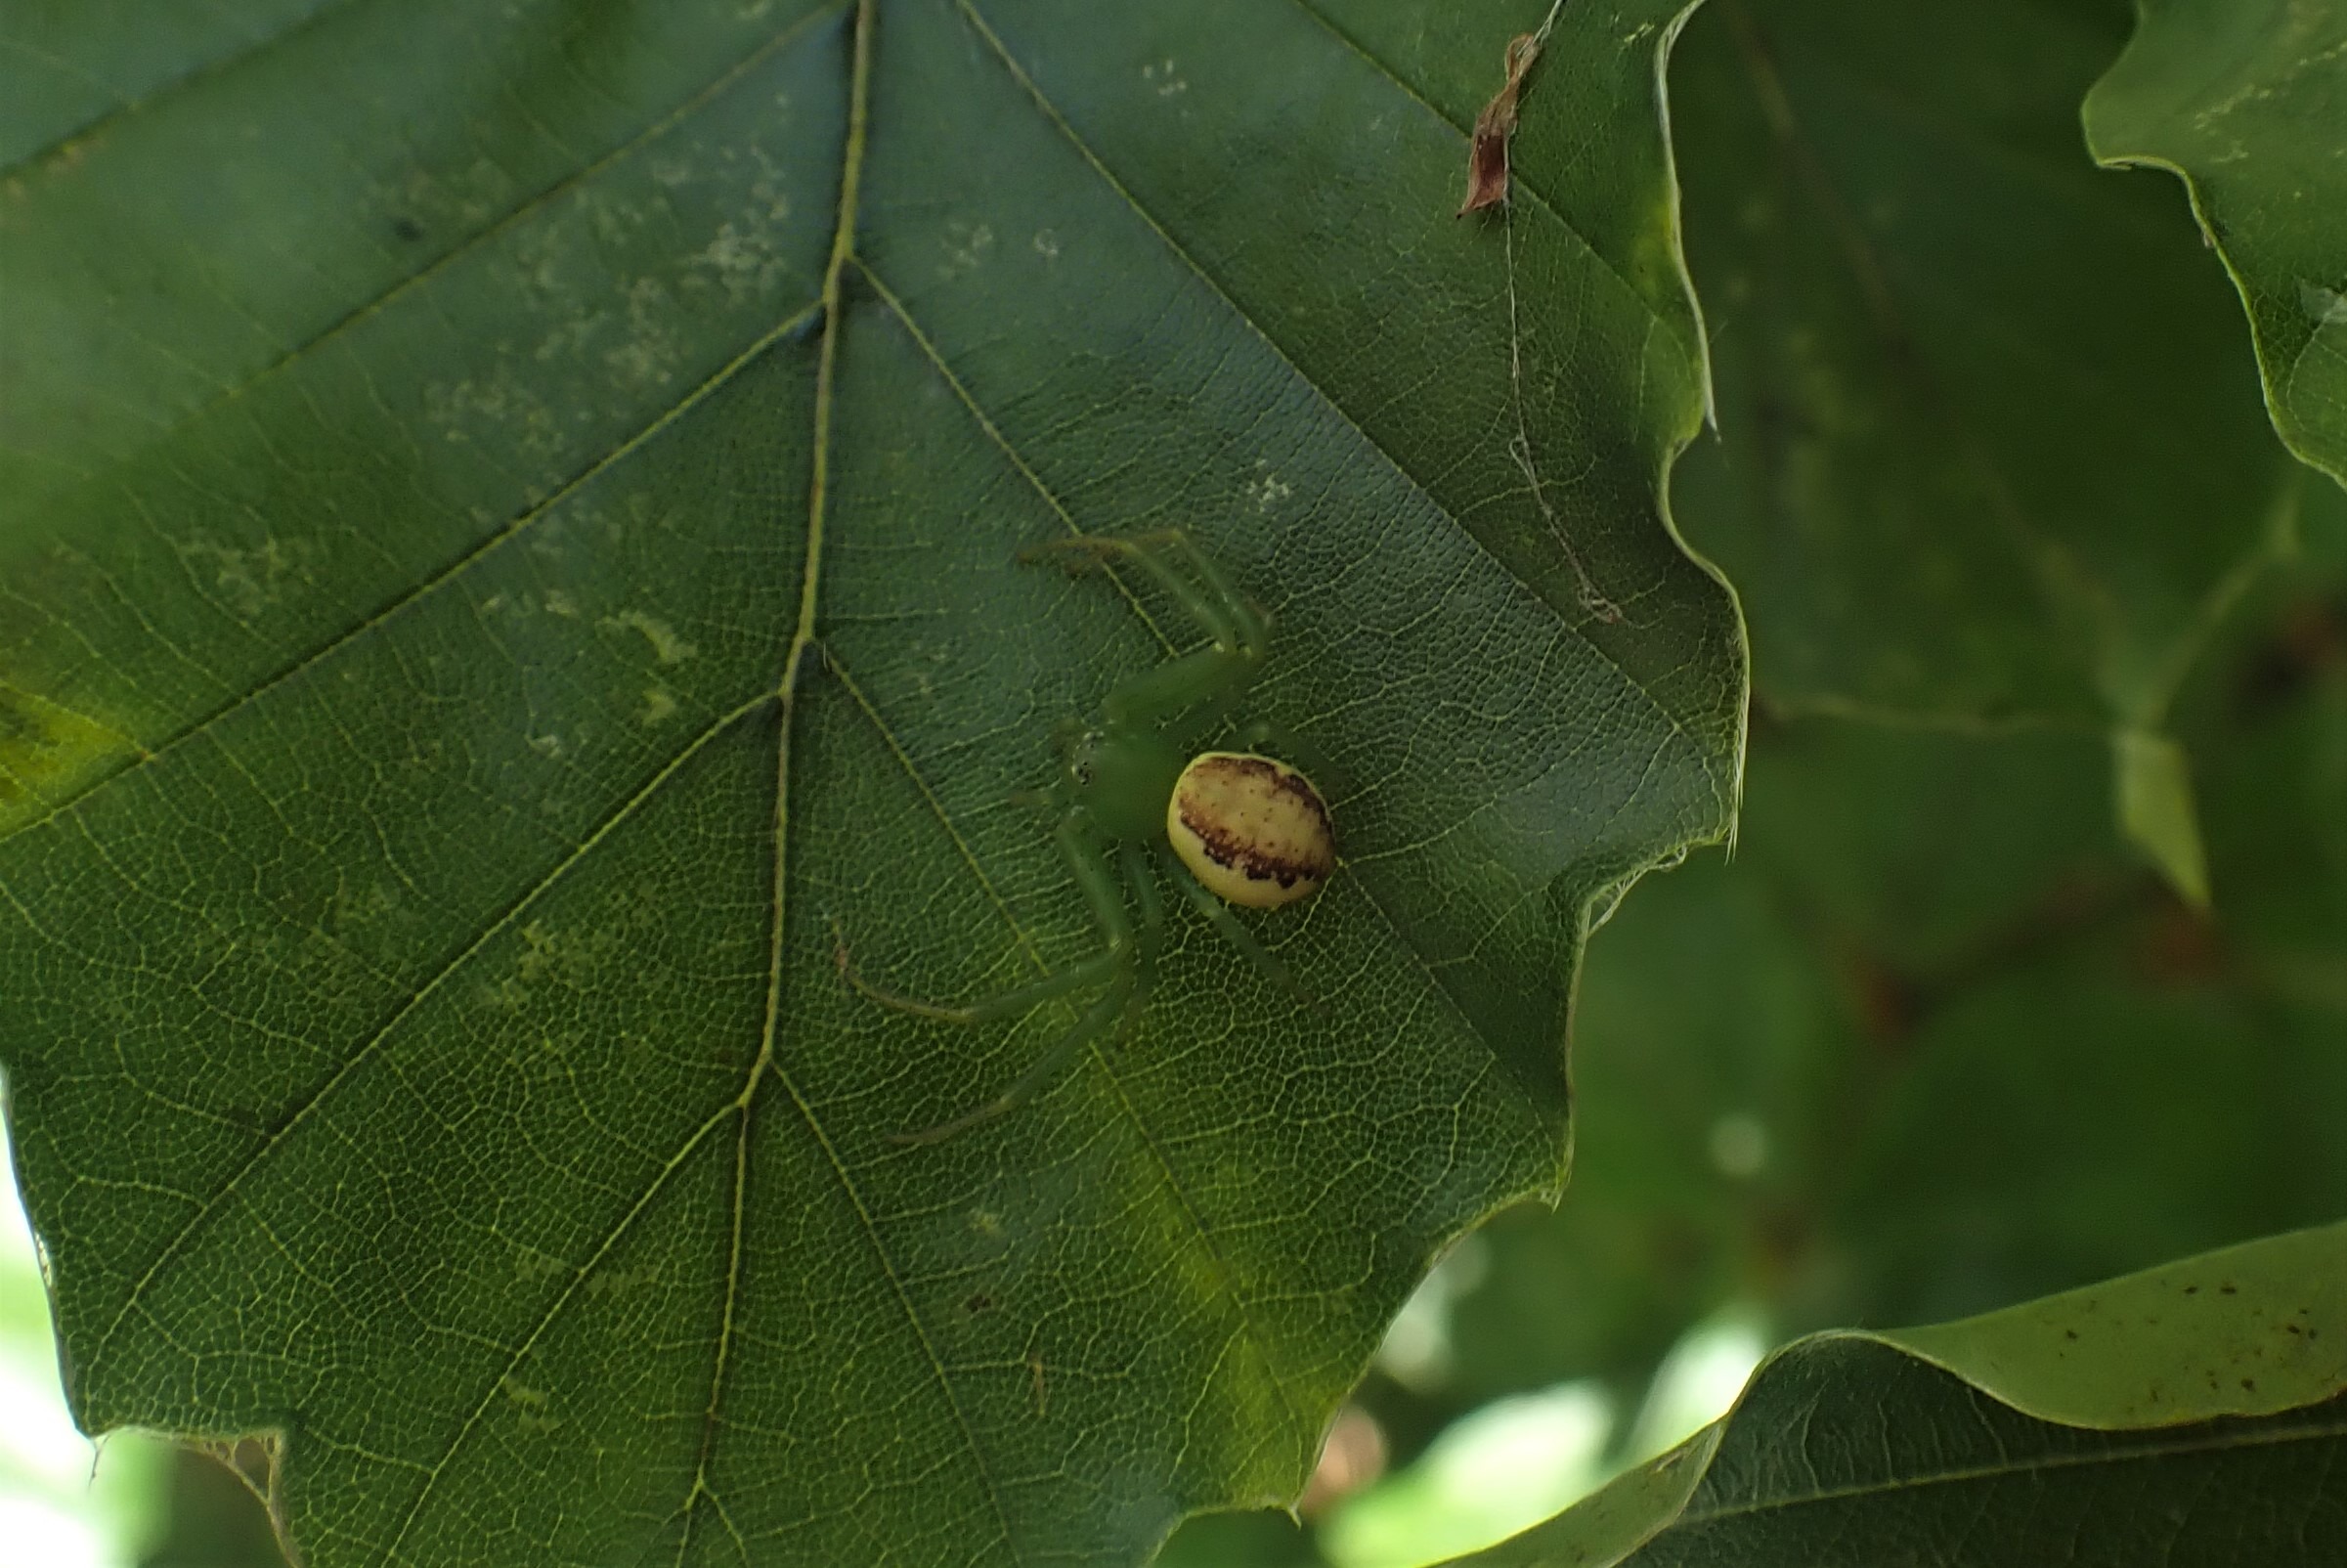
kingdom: Animalia
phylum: Arthropoda
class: Arachnida
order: Araneae
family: Thomisidae
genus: Diaea
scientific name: Diaea dorsata
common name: Grøn krabbeedderkop
